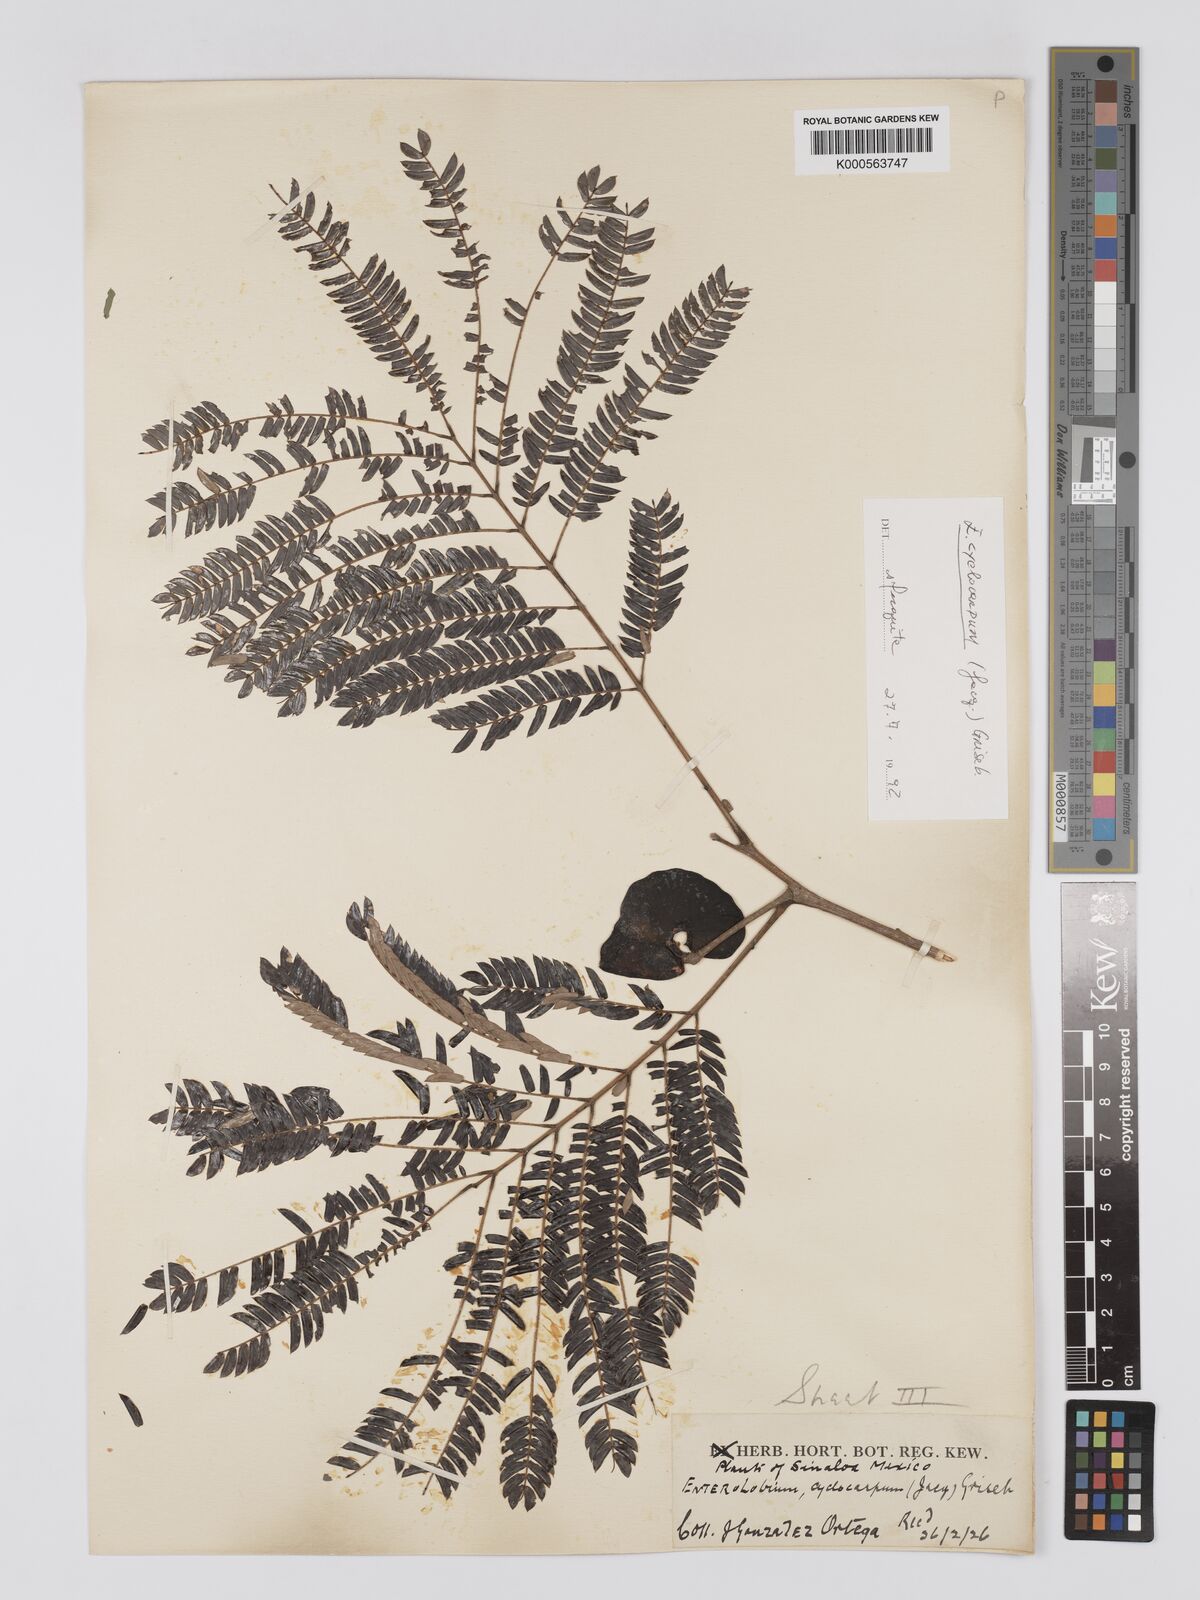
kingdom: Plantae
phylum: Tracheophyta
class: Magnoliopsida
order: Fabales
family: Fabaceae
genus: Enterolobium
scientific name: Enterolobium cyclocarpum
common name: Ear tree
